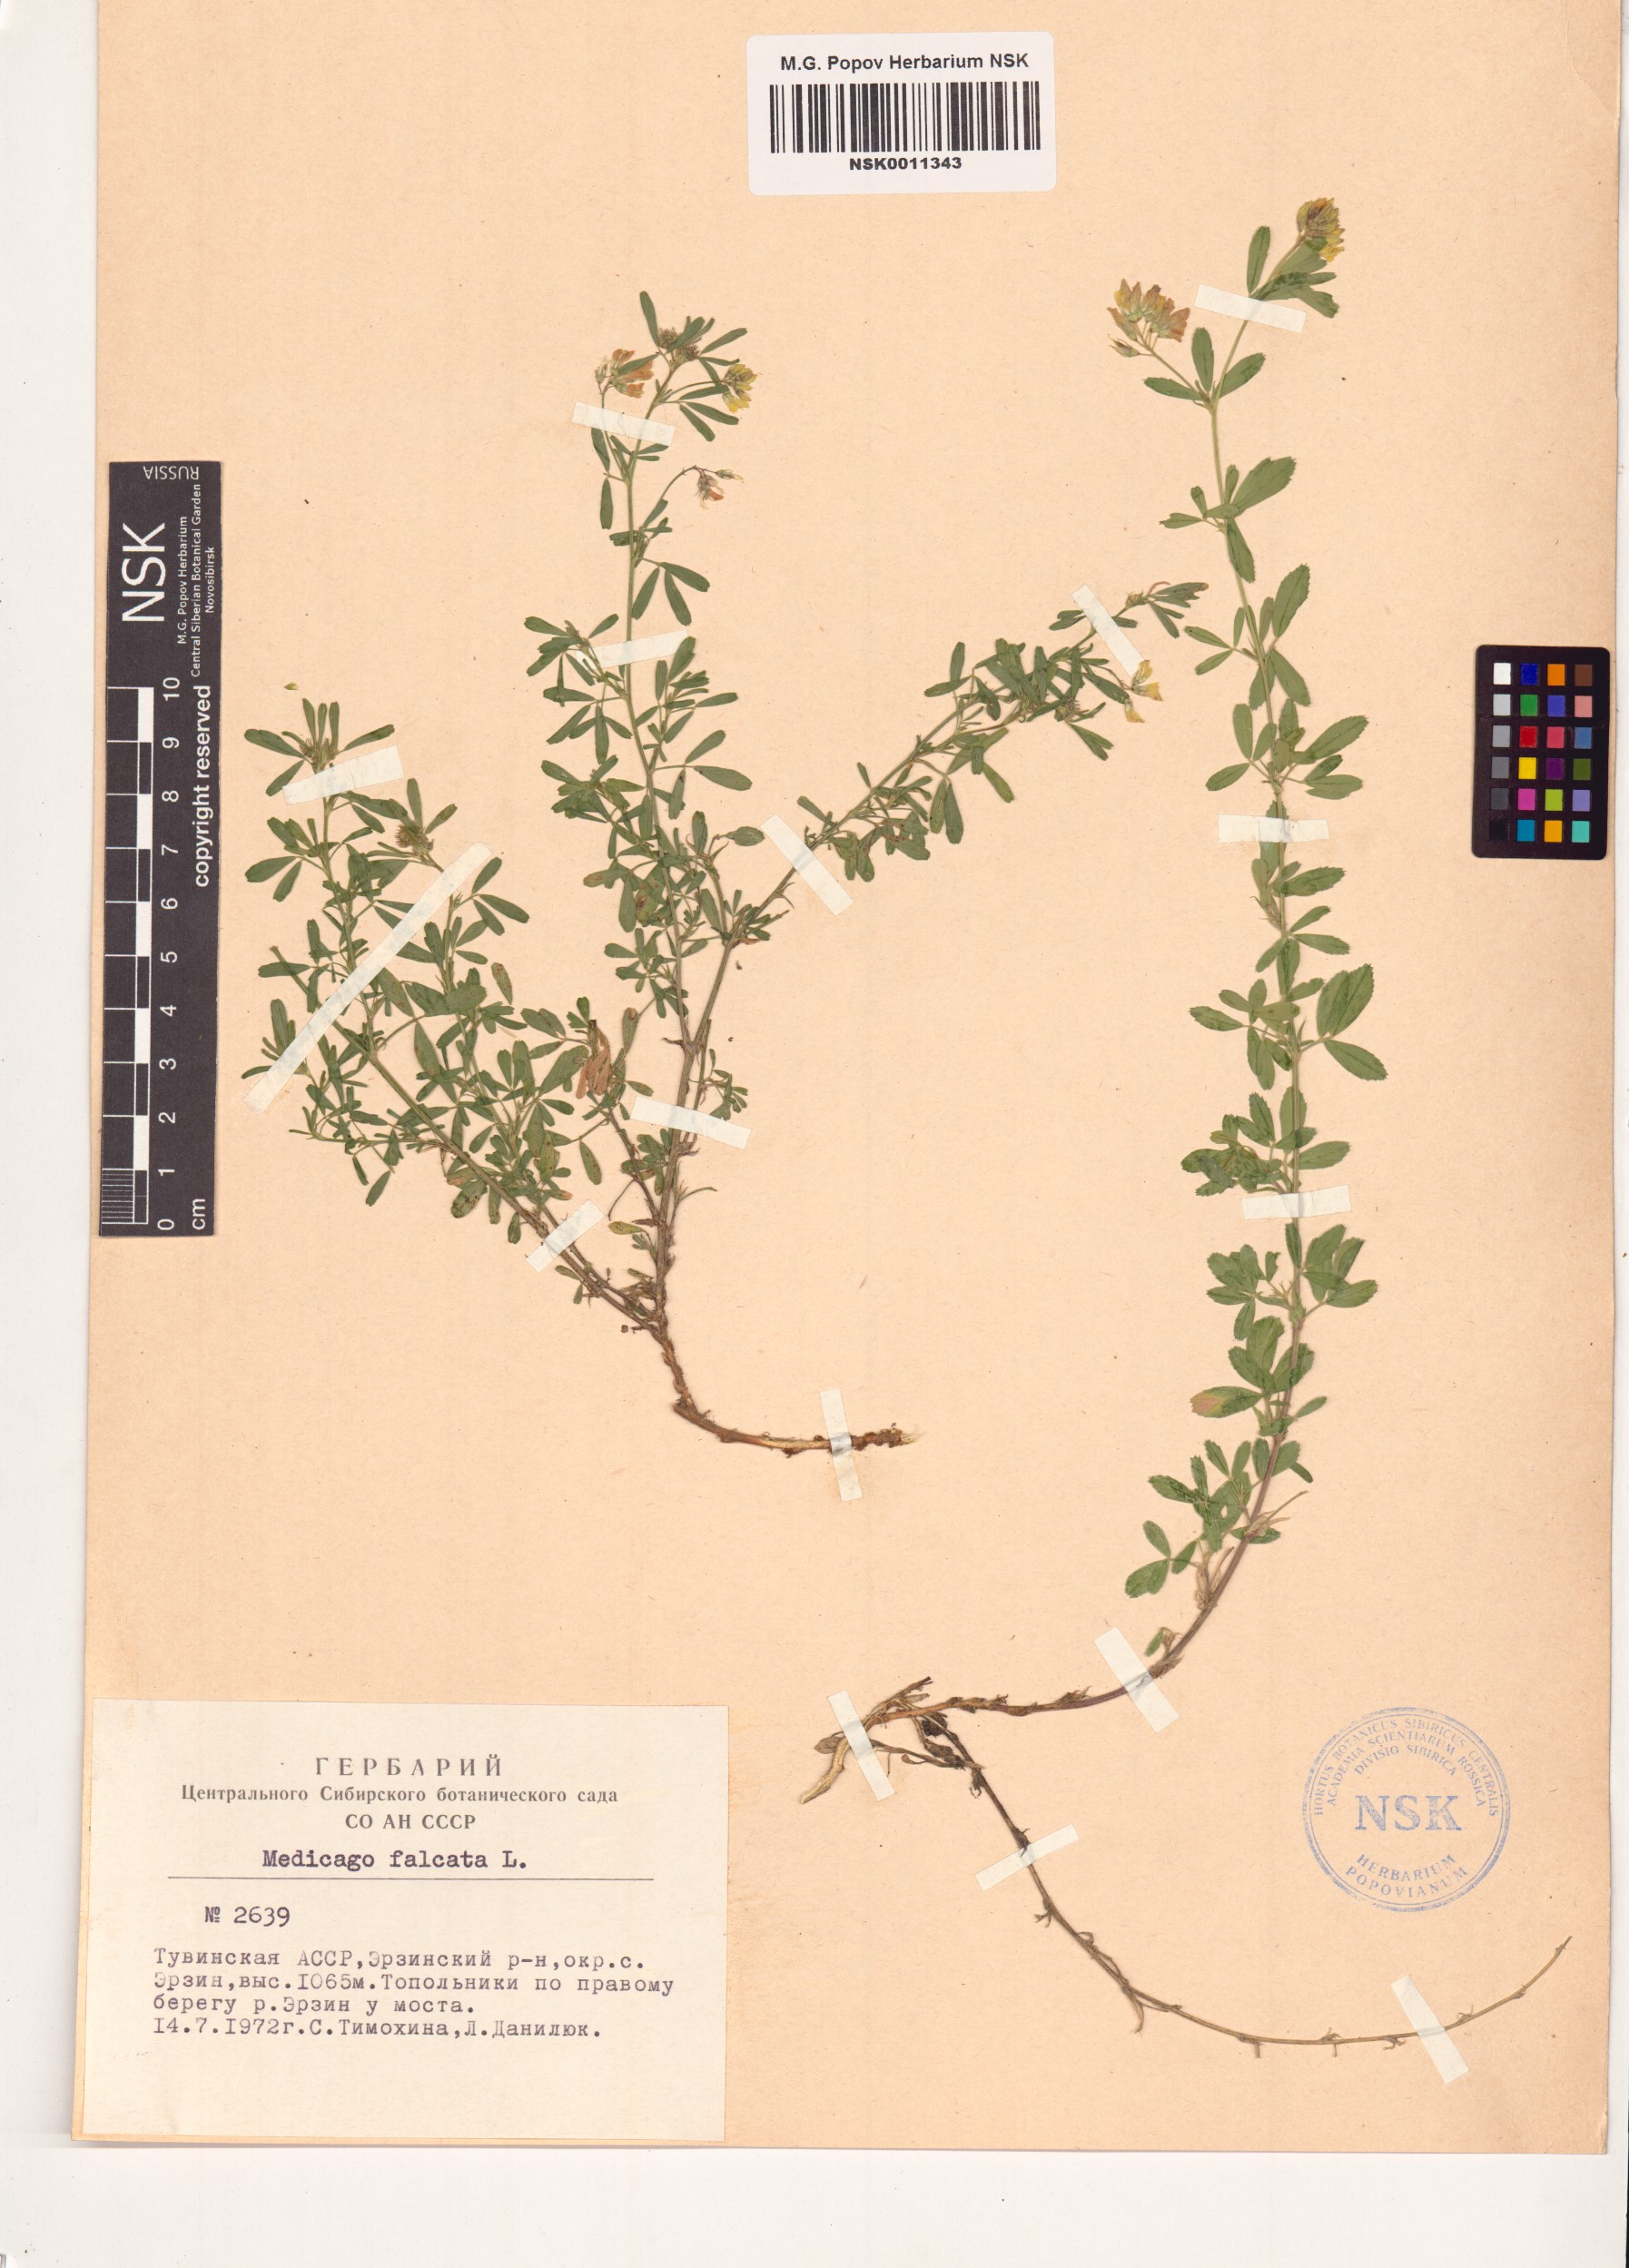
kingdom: Plantae
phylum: Tracheophyta
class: Magnoliopsida
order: Fabales
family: Fabaceae
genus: Medicago
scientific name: Medicago falcata
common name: Sickle medick
